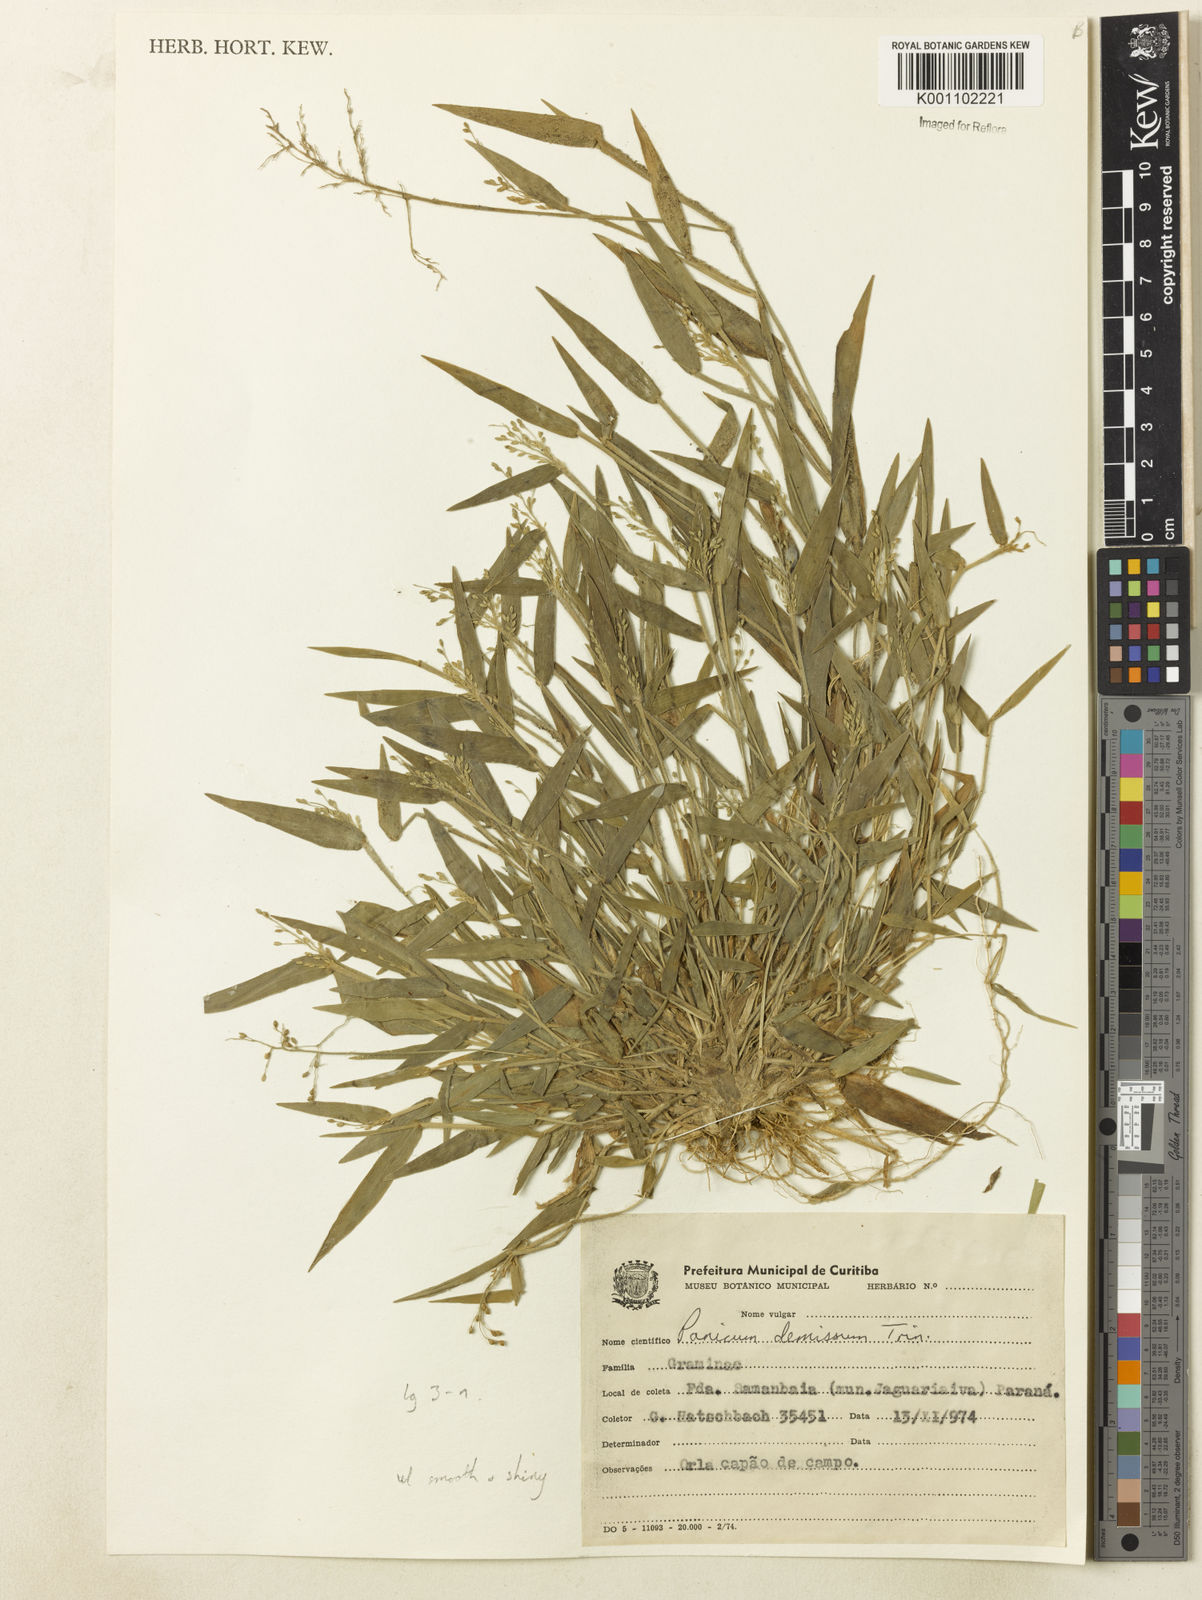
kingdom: Plantae
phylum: Tracheophyta
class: Liliopsida
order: Poales
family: Poaceae
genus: Dichanthelium
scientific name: Dichanthelium sabulorum
